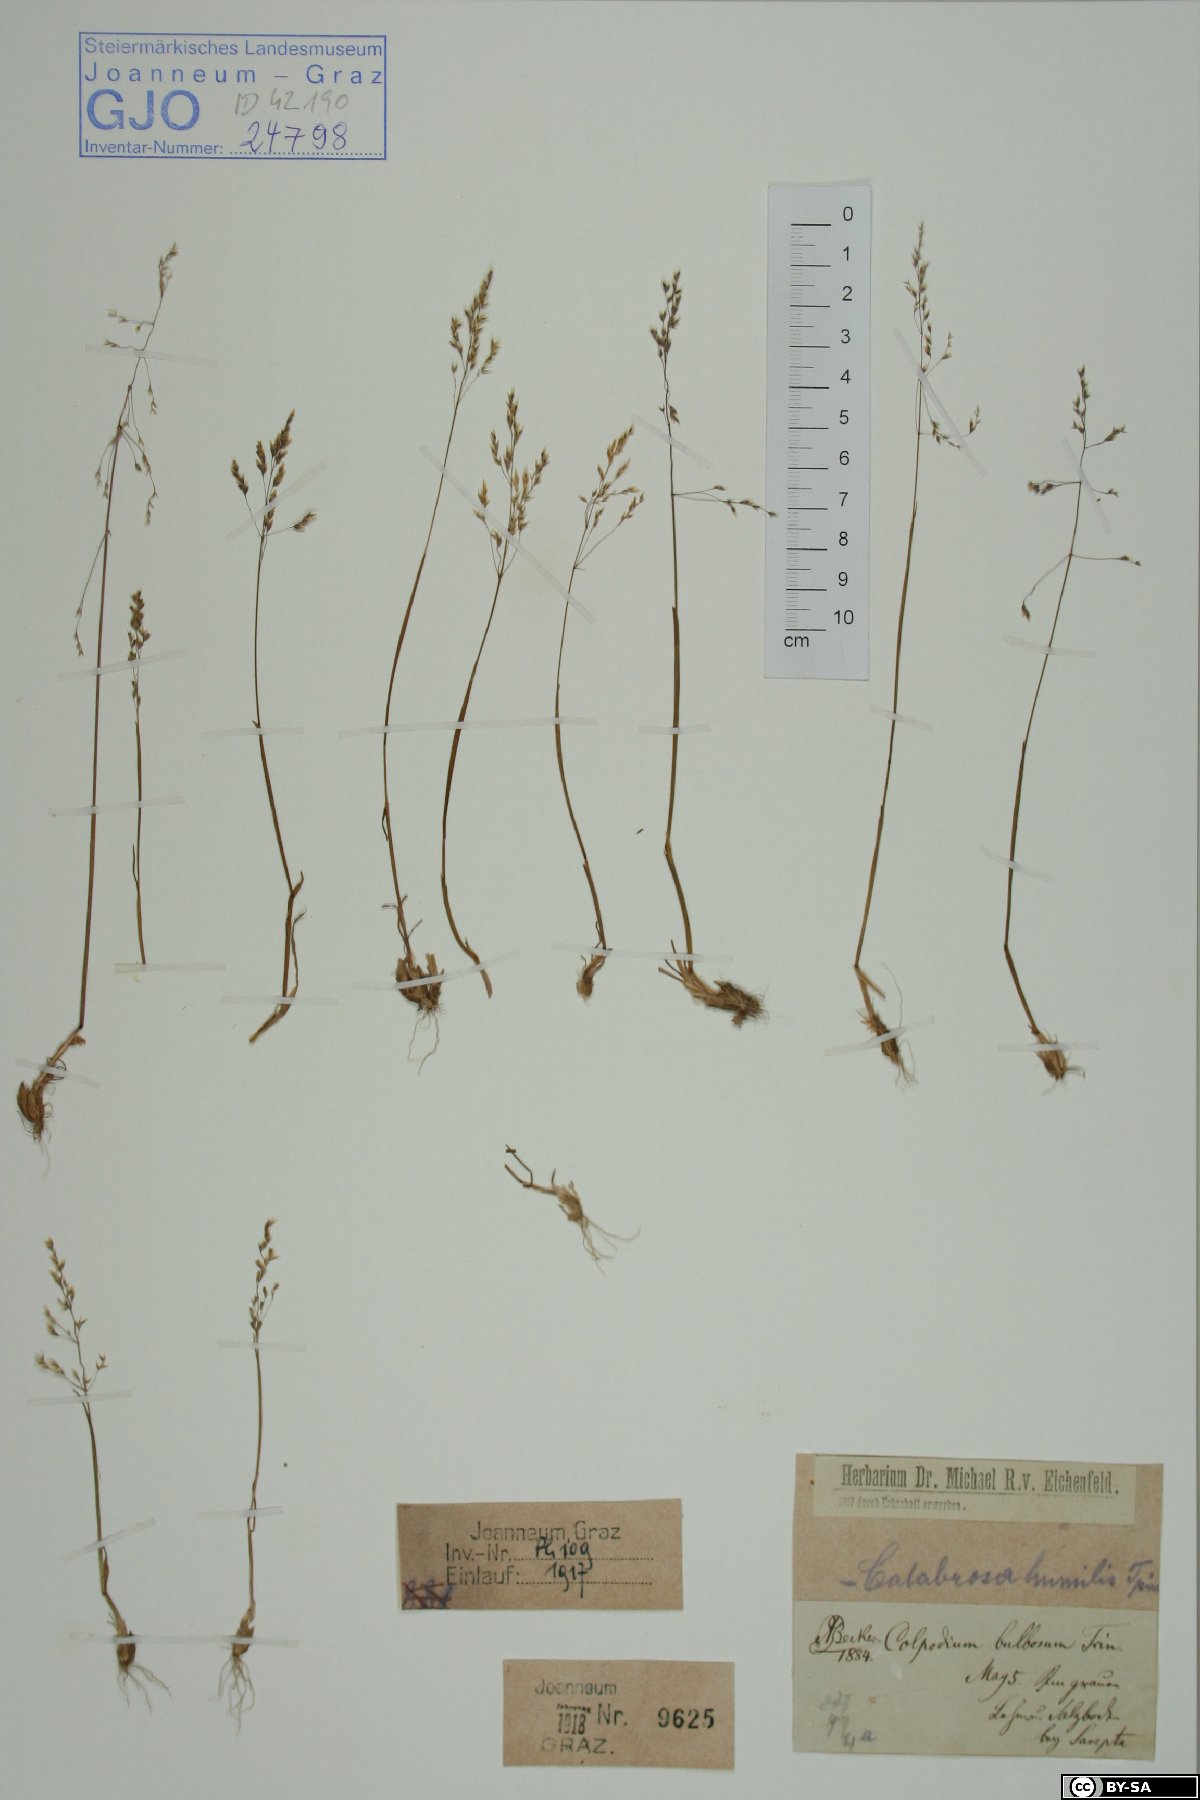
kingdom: Plantae
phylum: Tracheophyta
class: Liliopsida
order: Poales
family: Poaceae
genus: Catabrosella
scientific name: Catabrosella humilis
